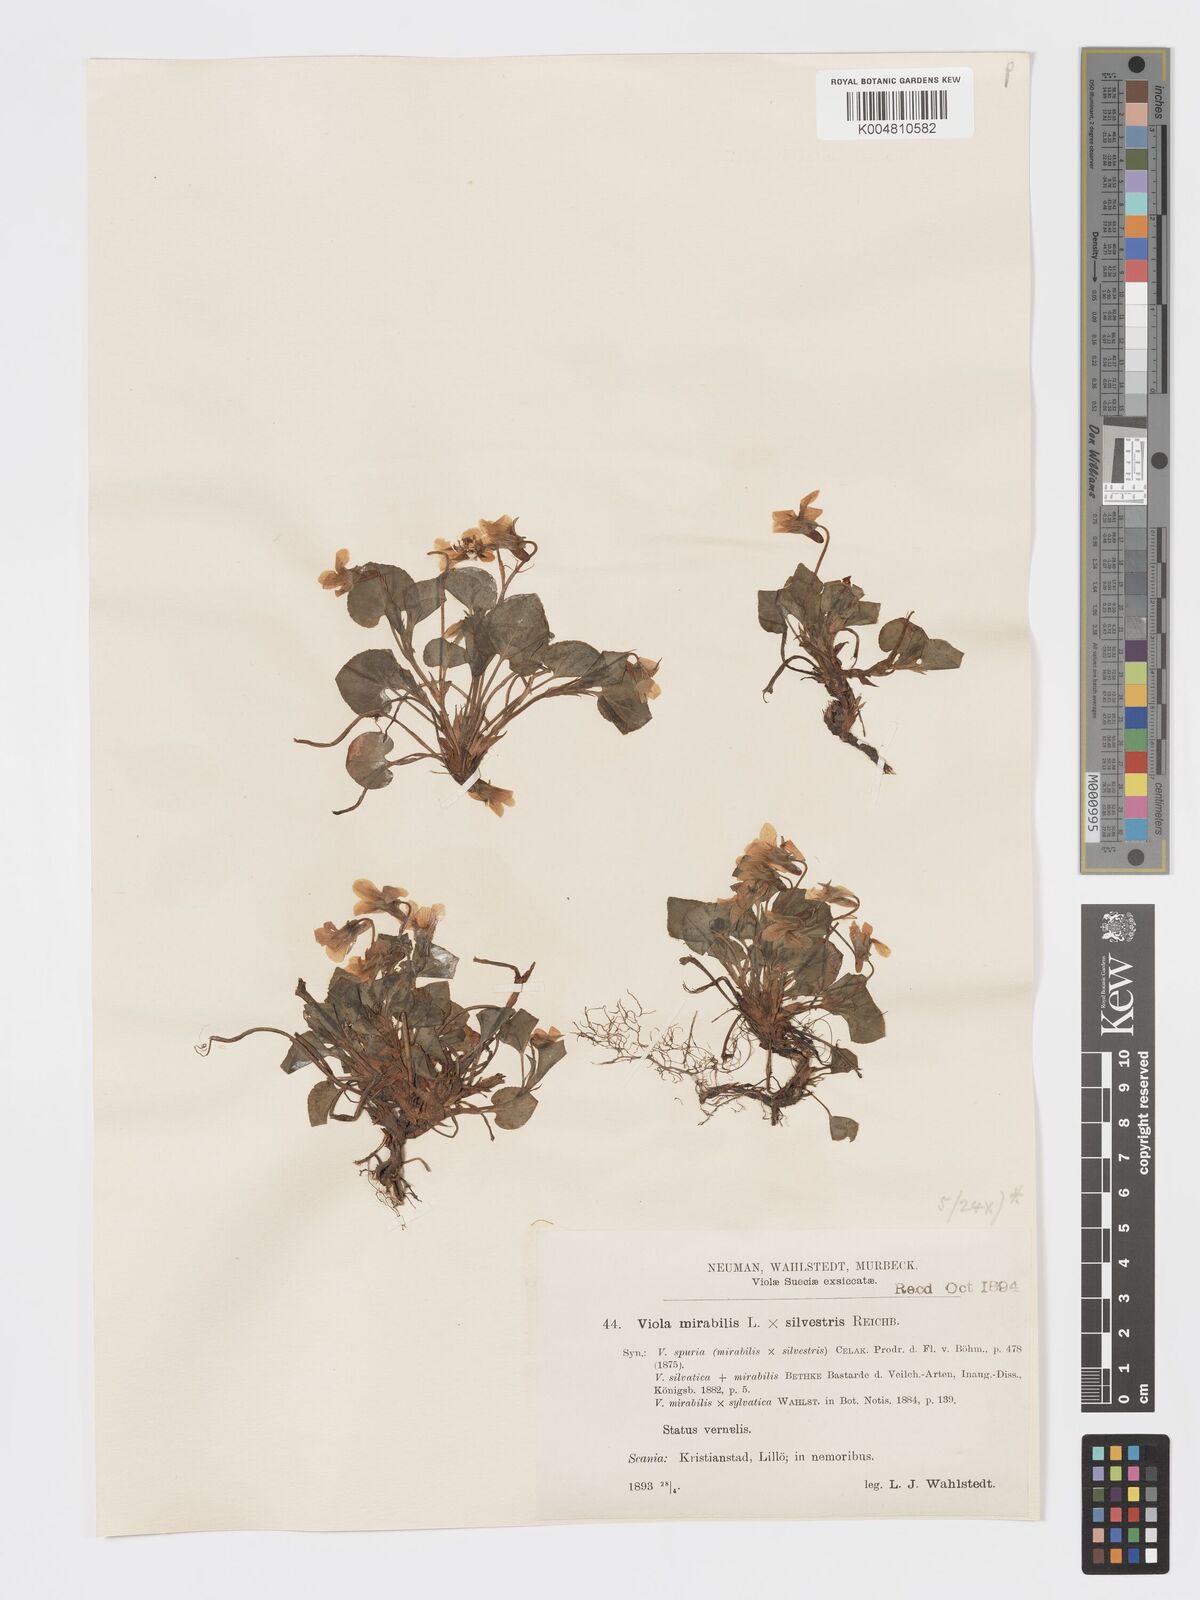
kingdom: Plantae
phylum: Tracheophyta
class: Magnoliopsida
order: Malpighiales
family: Violaceae
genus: Viola
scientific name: Viola mirabilis
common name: Wonder violet
